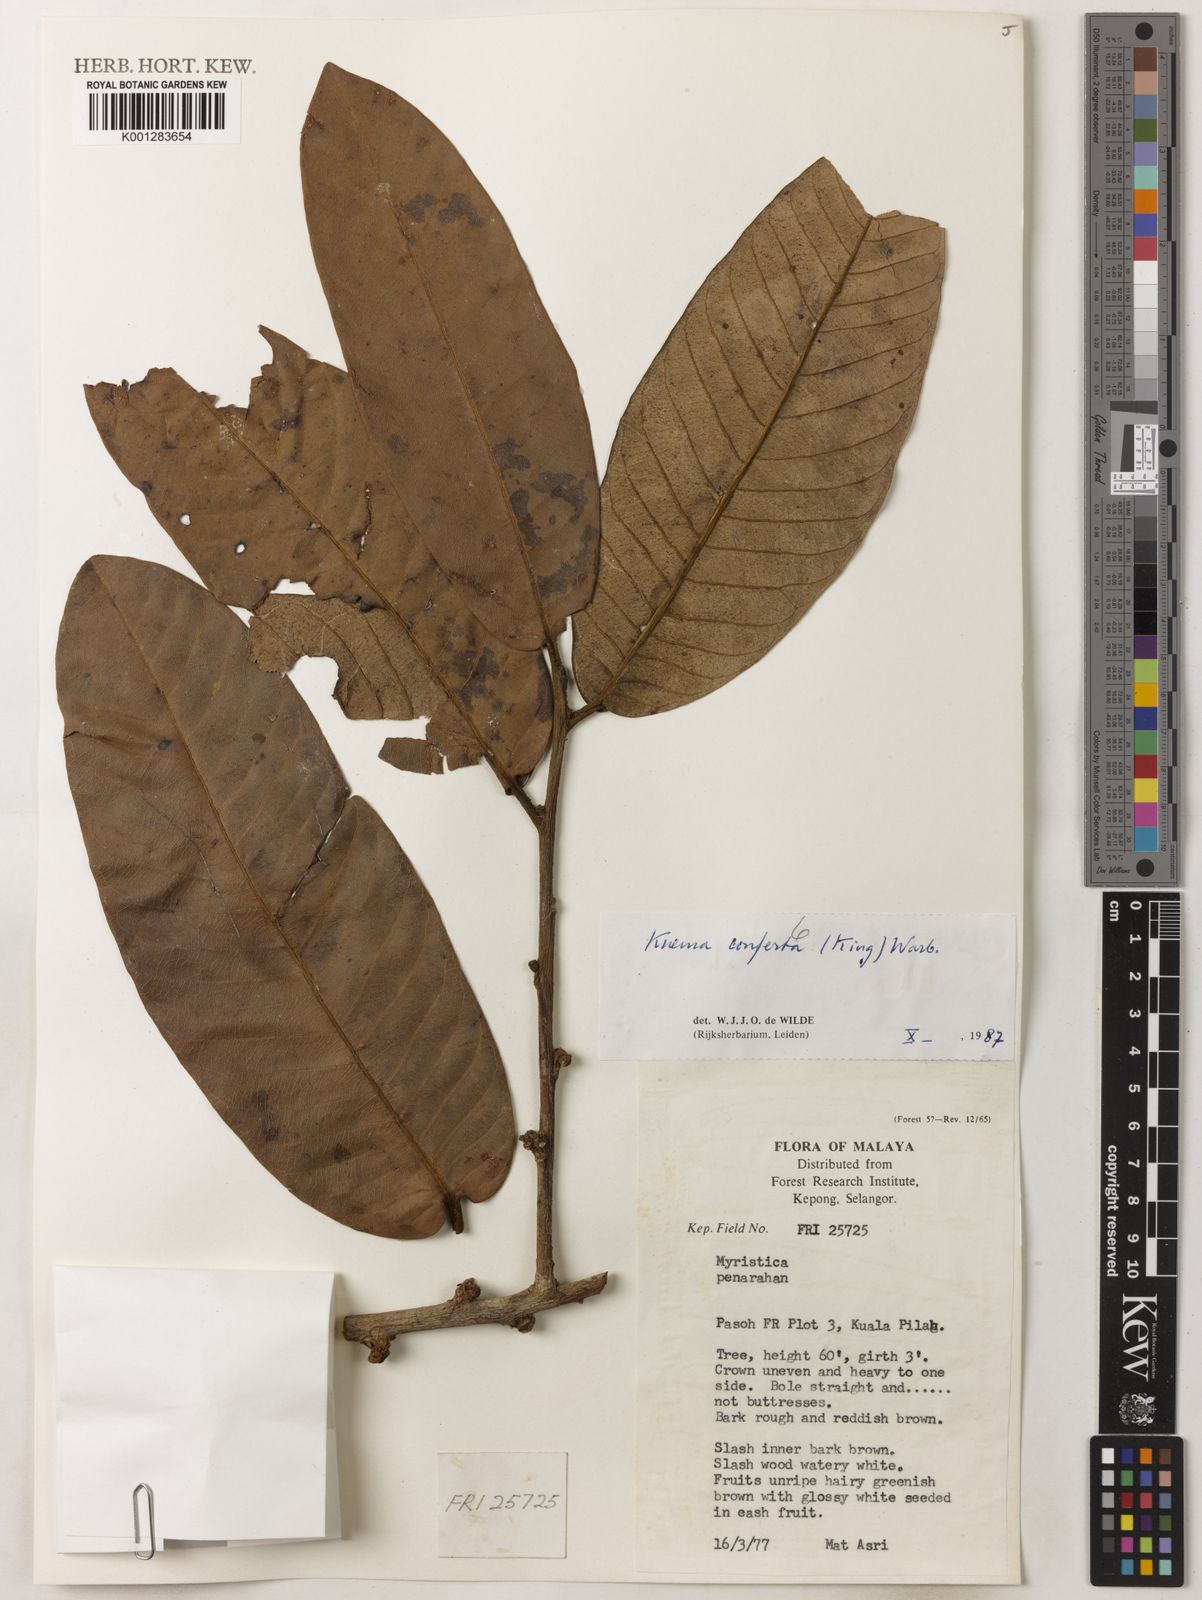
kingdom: Plantae
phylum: Tracheophyta
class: Magnoliopsida
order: Magnoliales
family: Myristicaceae
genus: Knema
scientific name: Knema conferta
